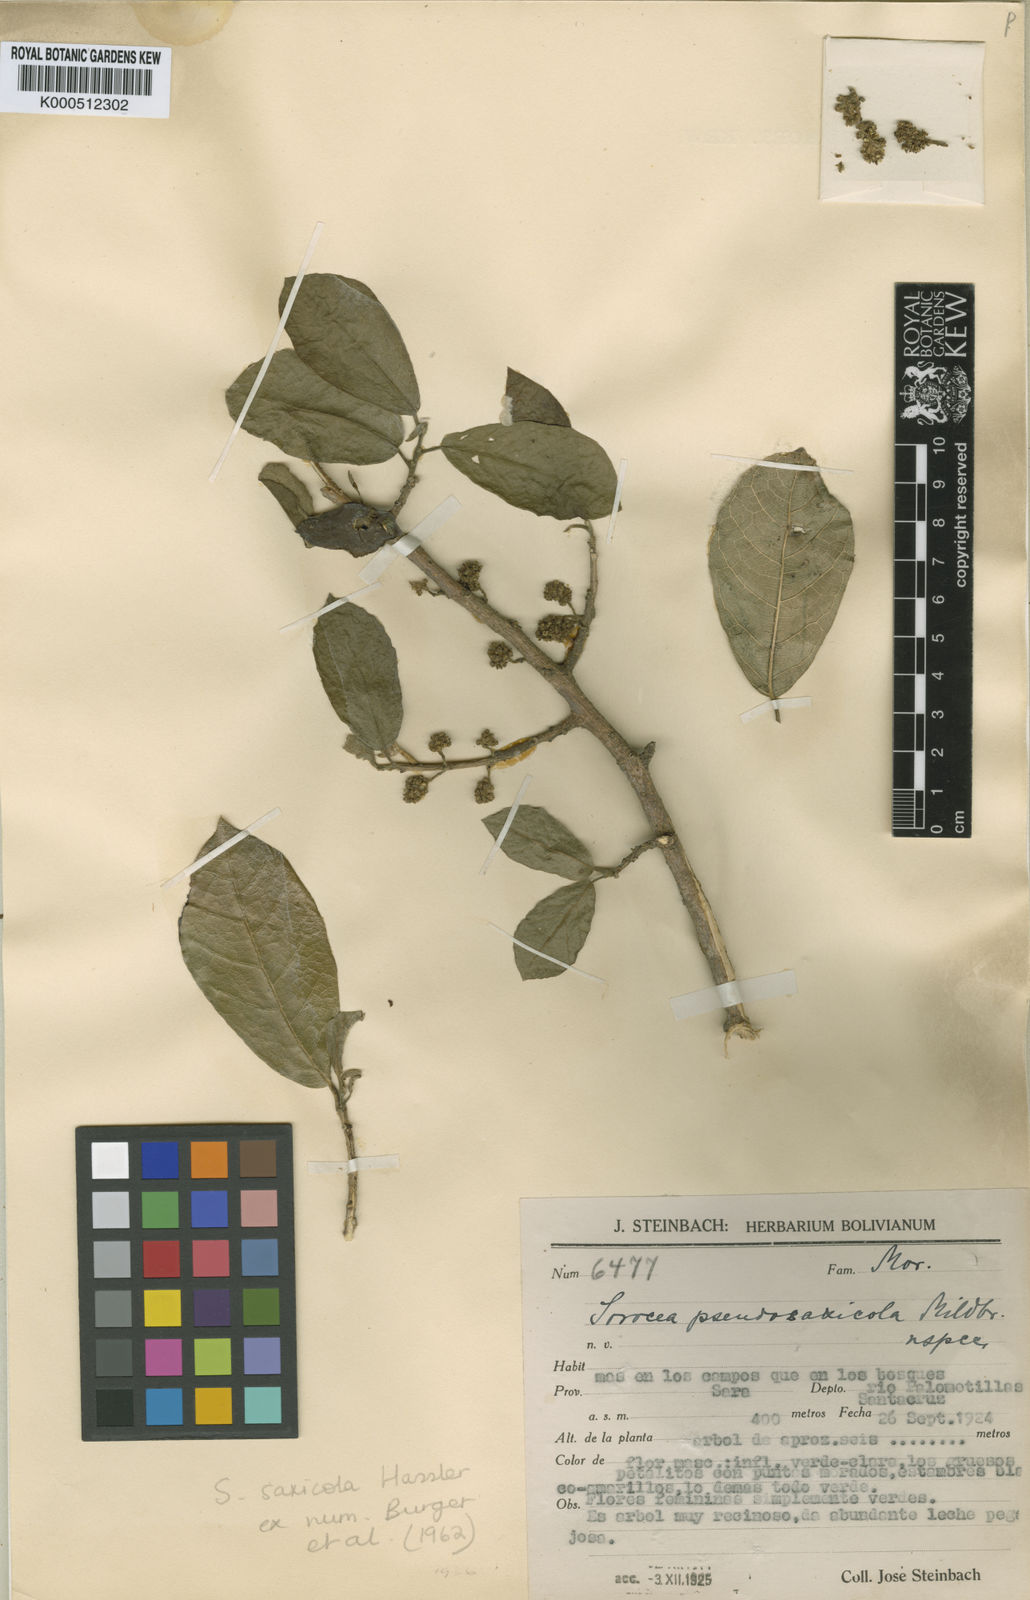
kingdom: Plantae
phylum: Tracheophyta
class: Magnoliopsida
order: Rosales
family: Moraceae
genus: Sorocea
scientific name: Sorocea sprucei
